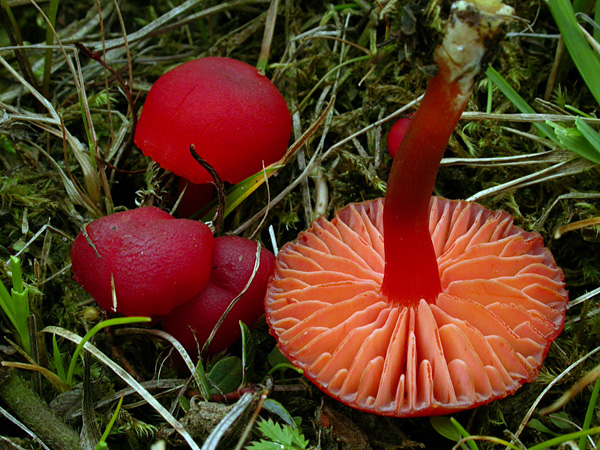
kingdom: Fungi
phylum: Basidiomycota
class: Agaricomycetes
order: Agaricales
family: Hygrophoraceae
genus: Hygrocybe
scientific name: Hygrocybe phaeococcinea
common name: sortdugget vokshat
